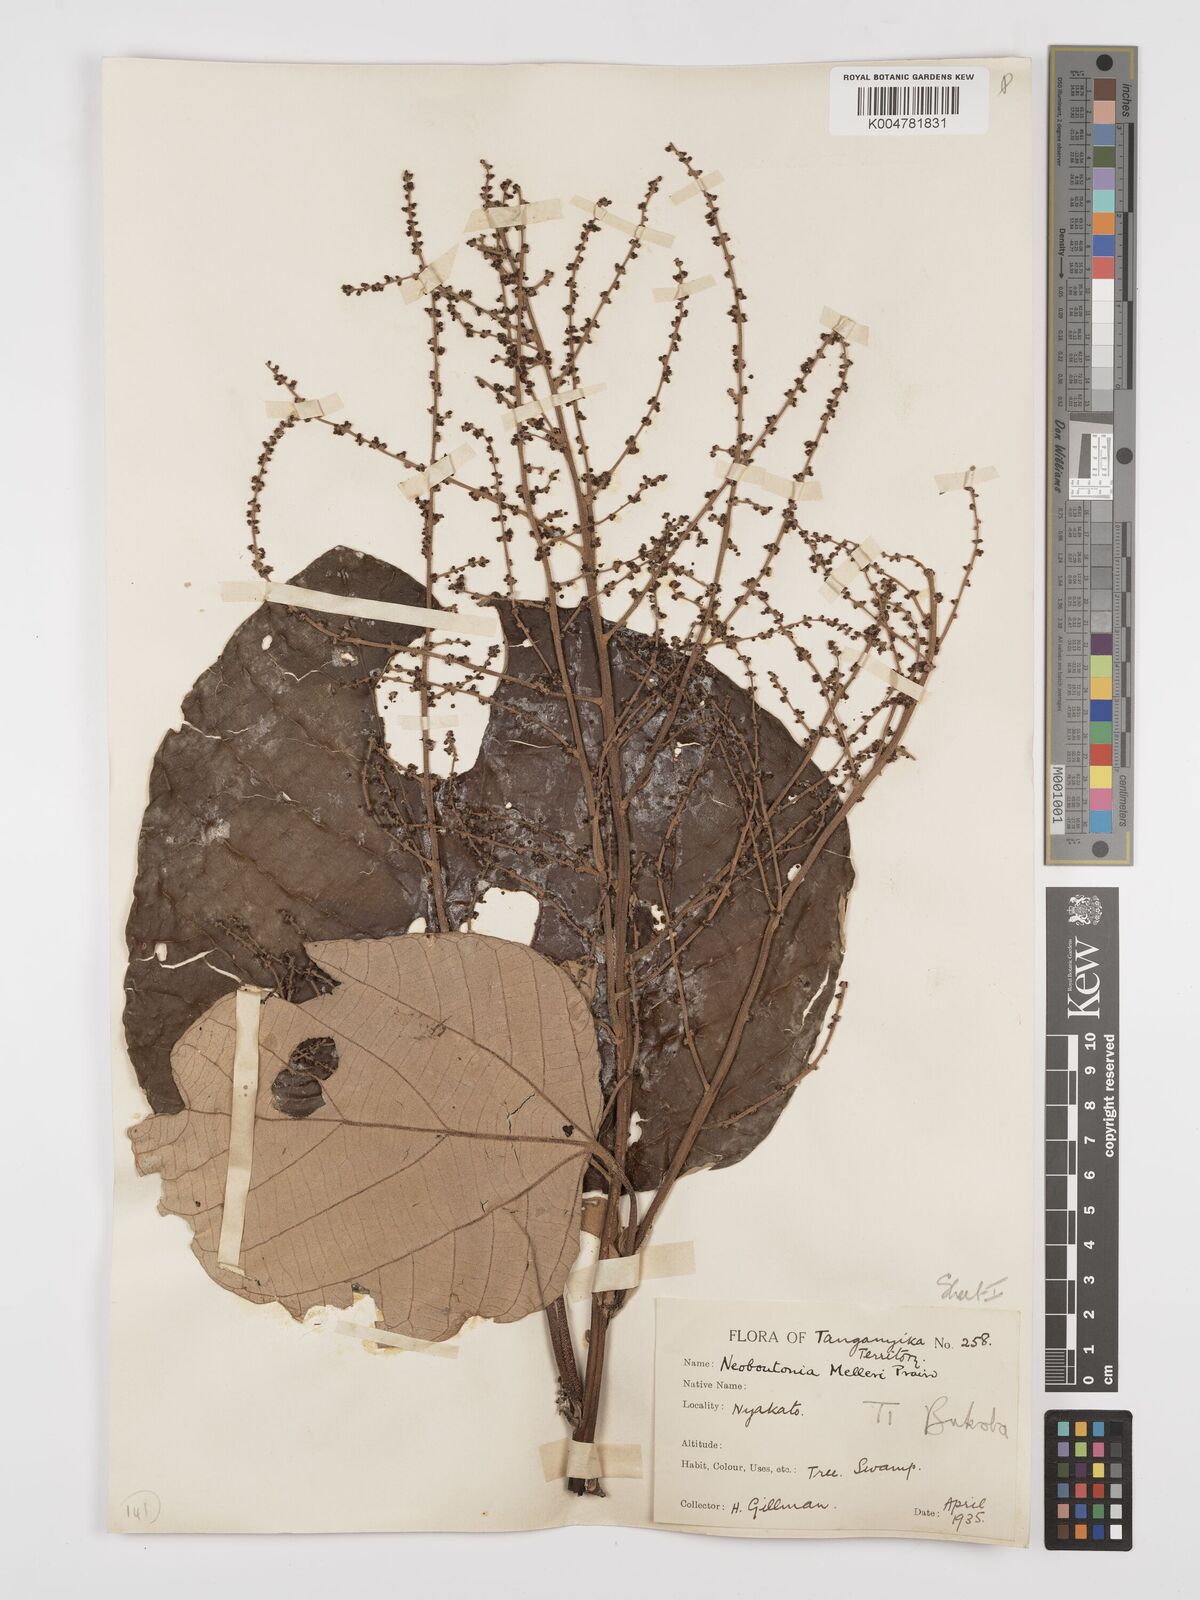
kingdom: Plantae
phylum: Tracheophyta
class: Magnoliopsida
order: Malpighiales
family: Euphorbiaceae
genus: Neoboutonia
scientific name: Neoboutonia melleri
